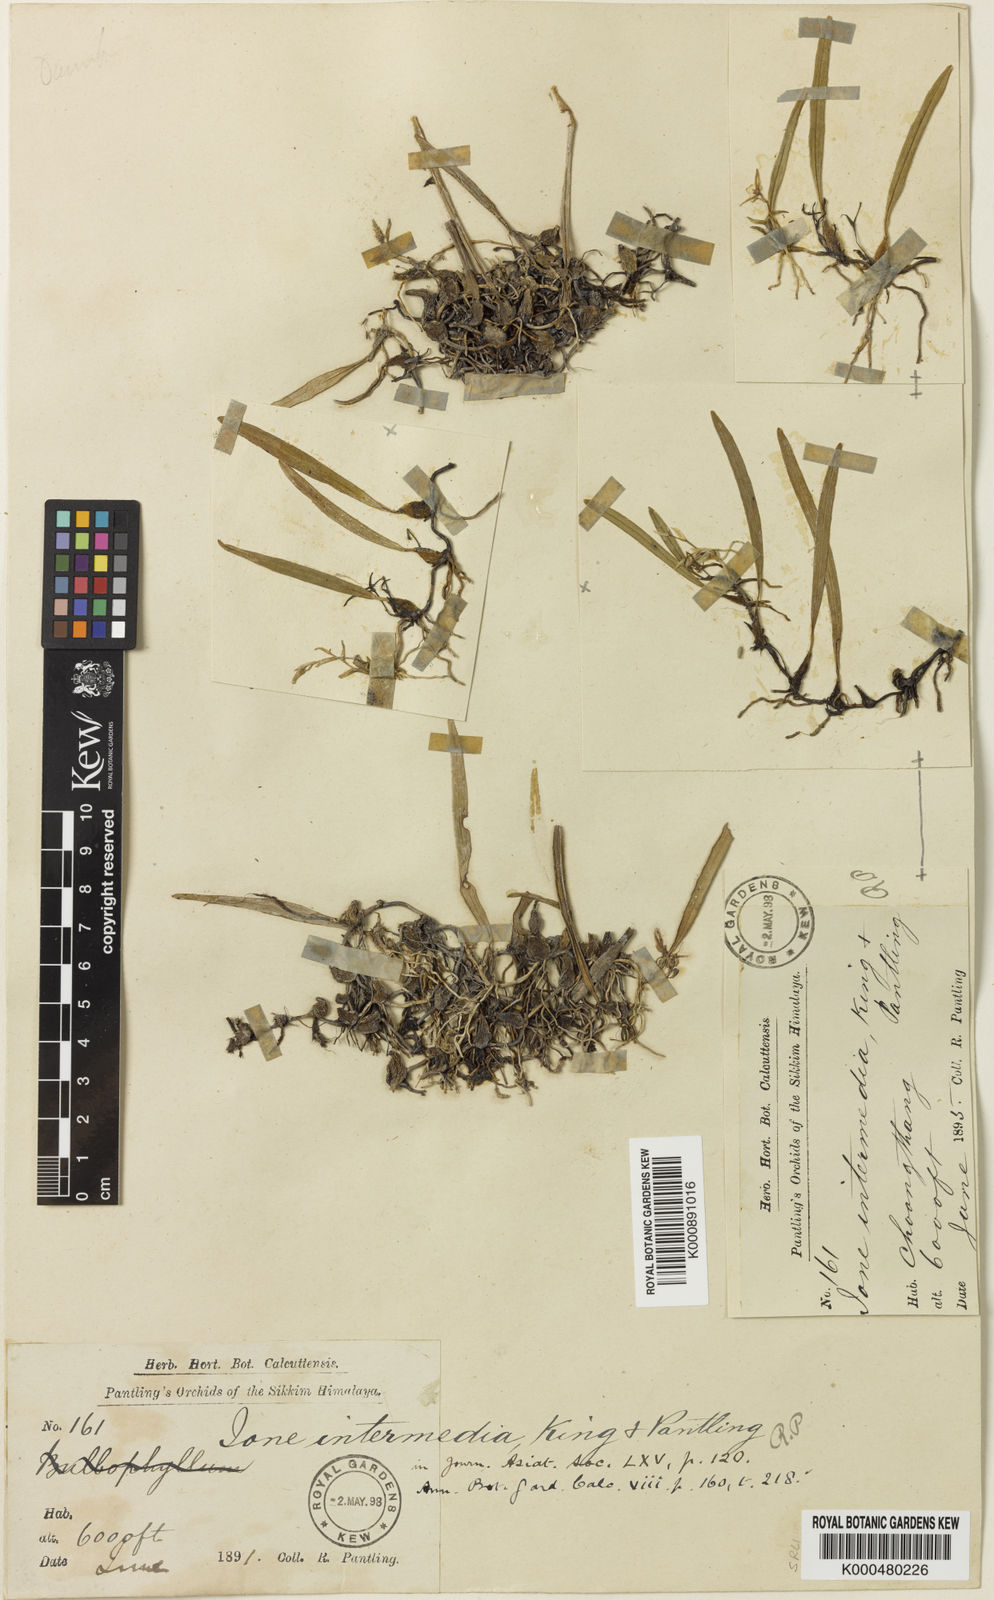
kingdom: Plantae
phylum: Tracheophyta
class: Liliopsida
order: Asparagales
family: Orchidaceae
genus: Bulbophyllum
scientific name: Bulbophyllum lopalanthum
